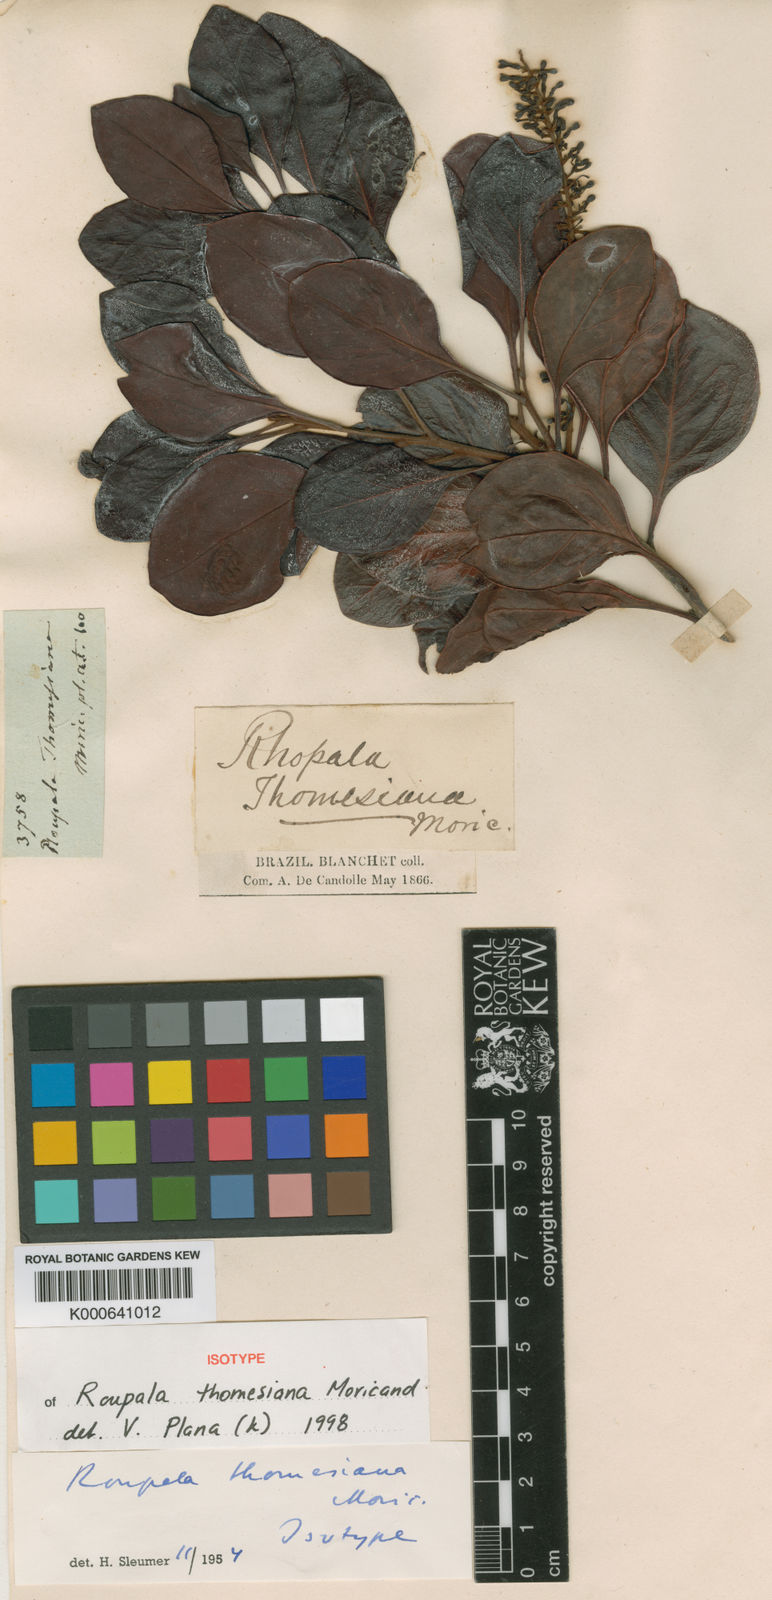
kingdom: Plantae
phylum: Tracheophyta
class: Magnoliopsida
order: Proteales
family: Proteaceae
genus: Roupala
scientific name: Roupala thomesiana
